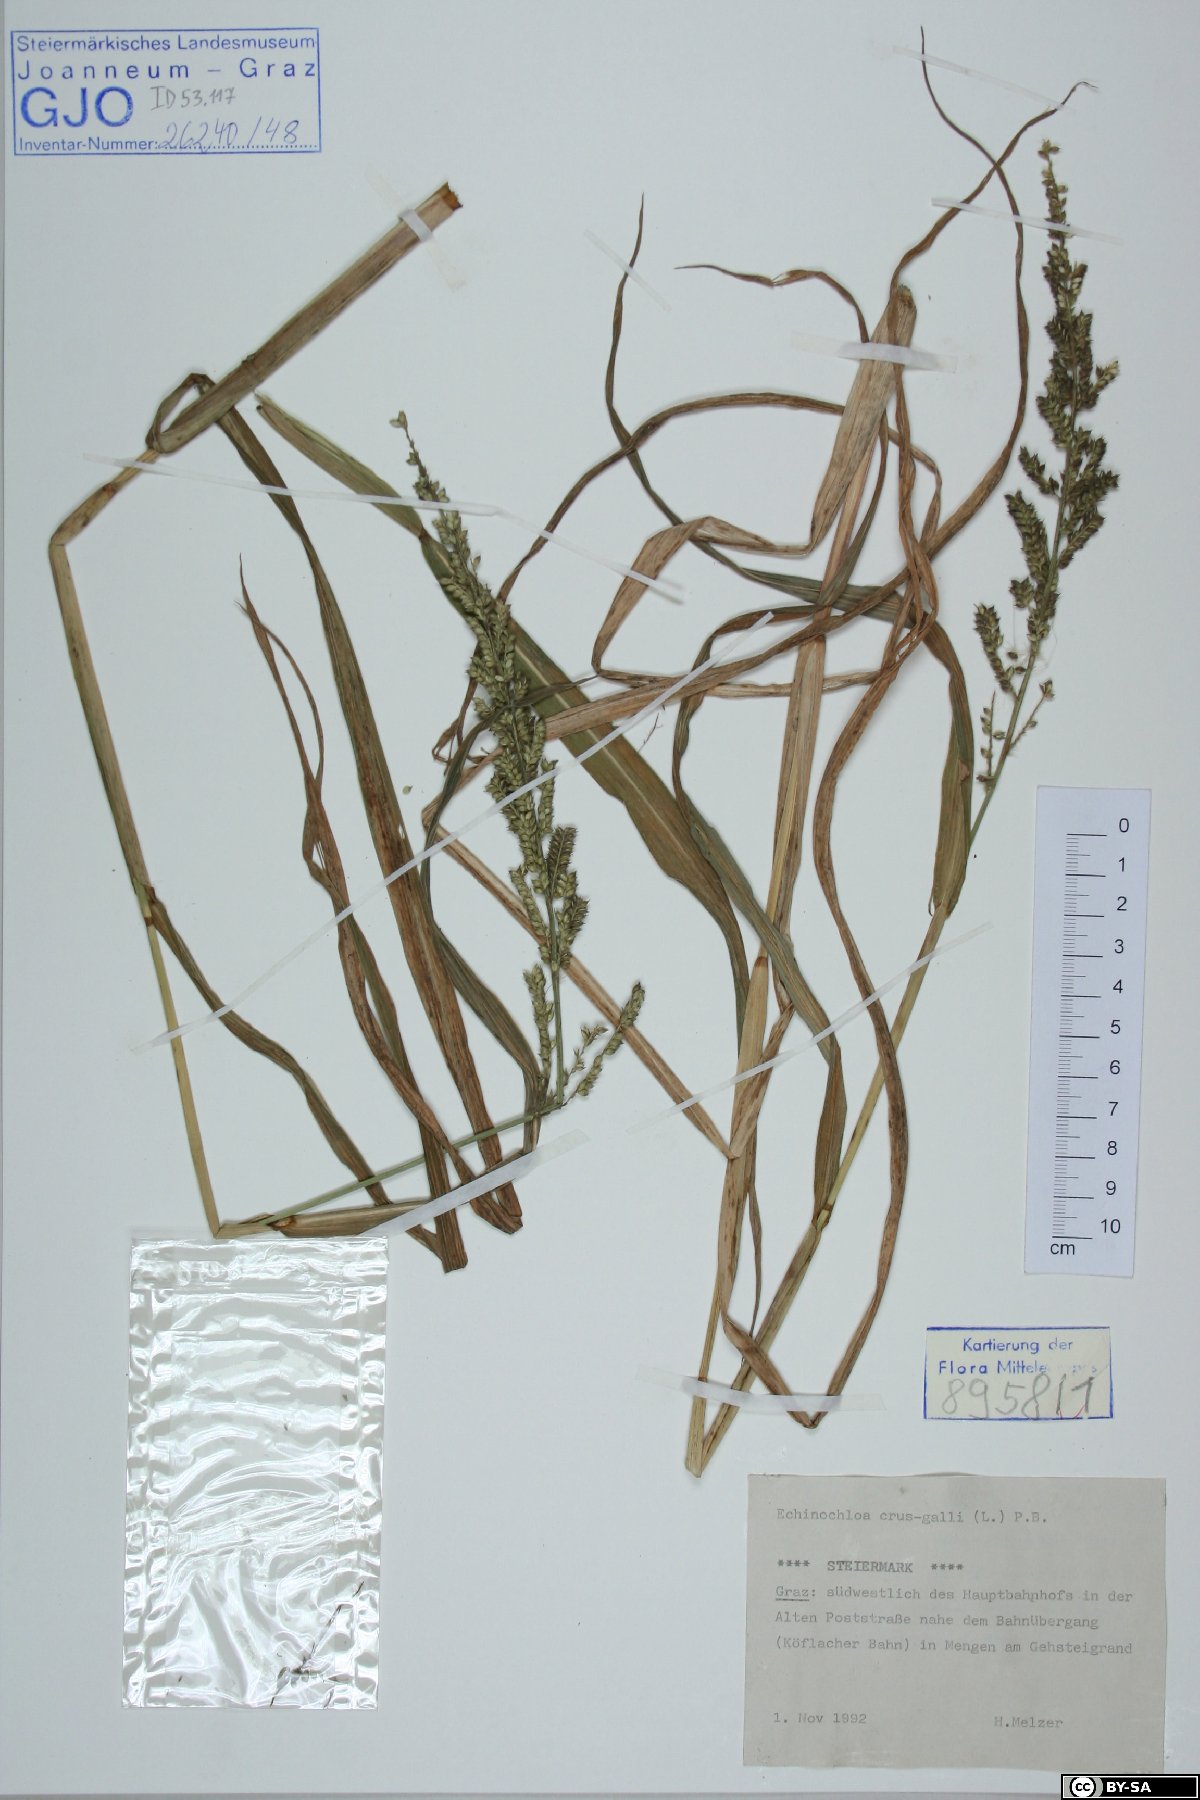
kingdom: Plantae
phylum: Tracheophyta
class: Liliopsida
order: Poales
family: Poaceae
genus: Echinochloa
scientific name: Echinochloa crus-galli
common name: Cockspur
